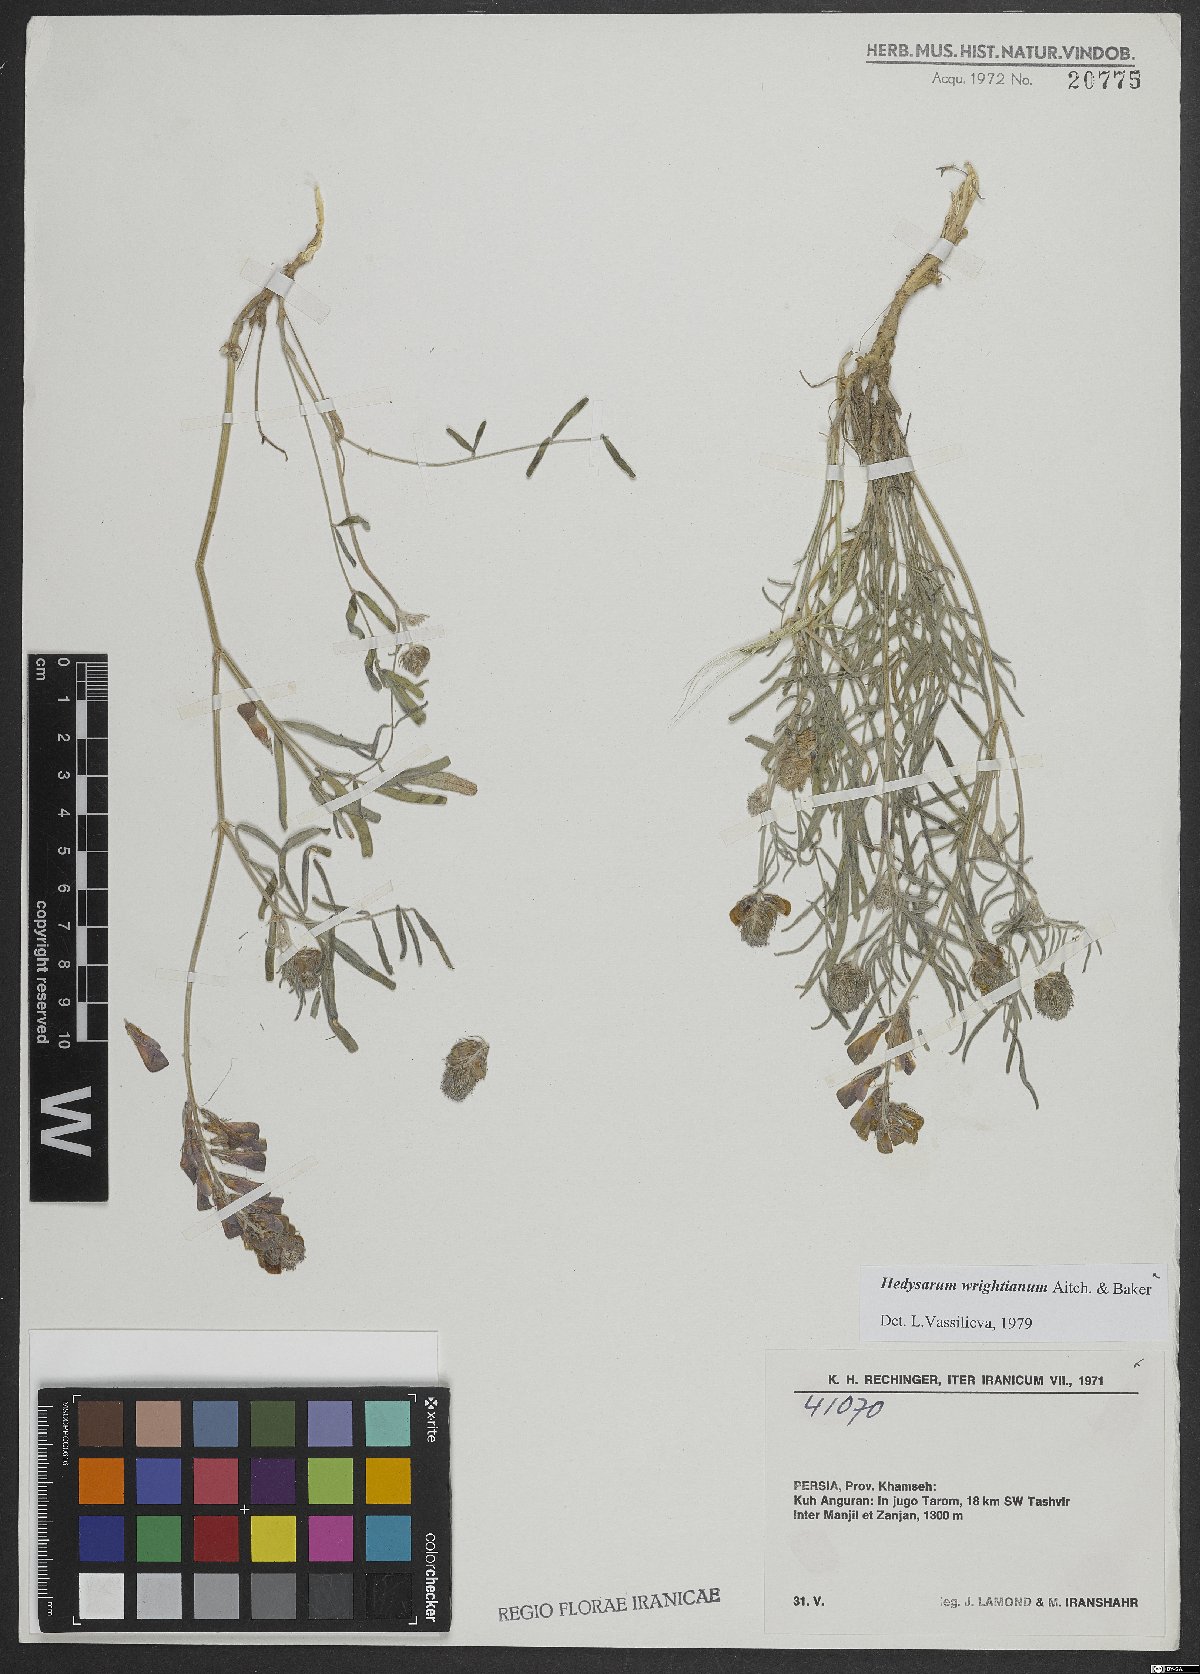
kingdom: Plantae
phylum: Tracheophyta
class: Magnoliopsida
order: Fabales
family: Fabaceae
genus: Hedysarum
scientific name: Hedysarum micropterum
